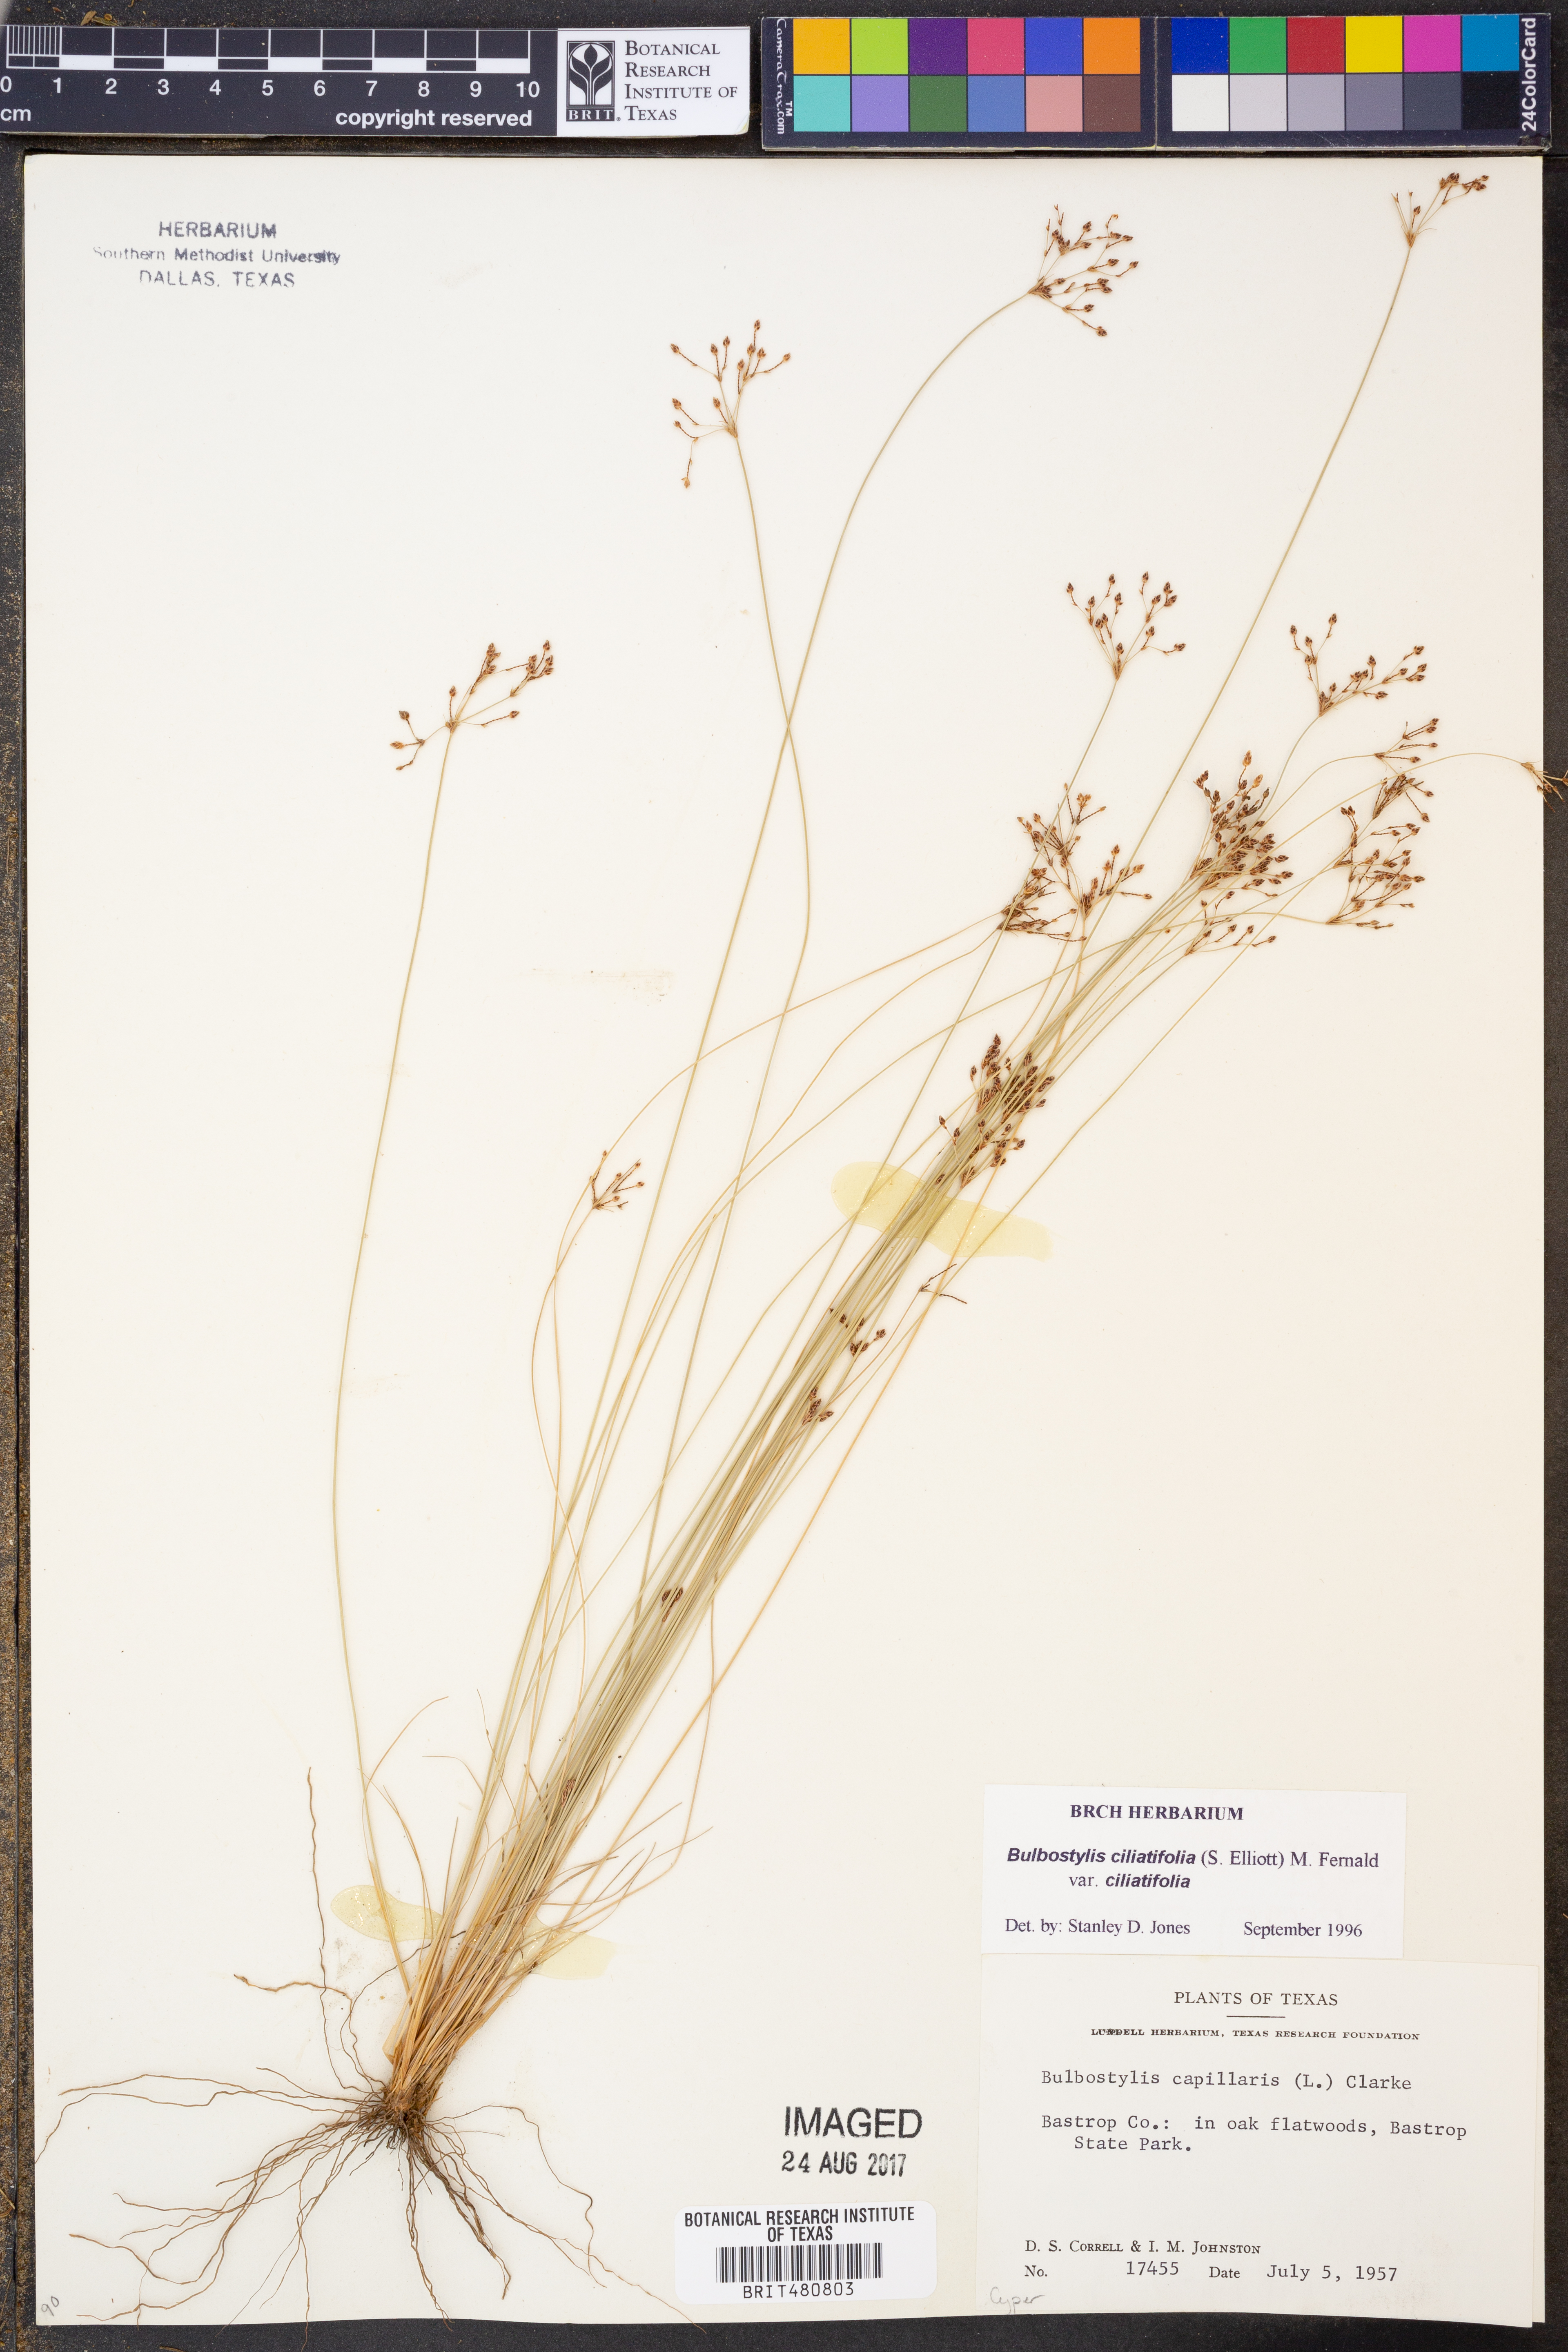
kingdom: Plantae
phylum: Tracheophyta
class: Liliopsida
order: Poales
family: Cyperaceae
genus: Bulbostylis
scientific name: Bulbostylis ciliatifolia
